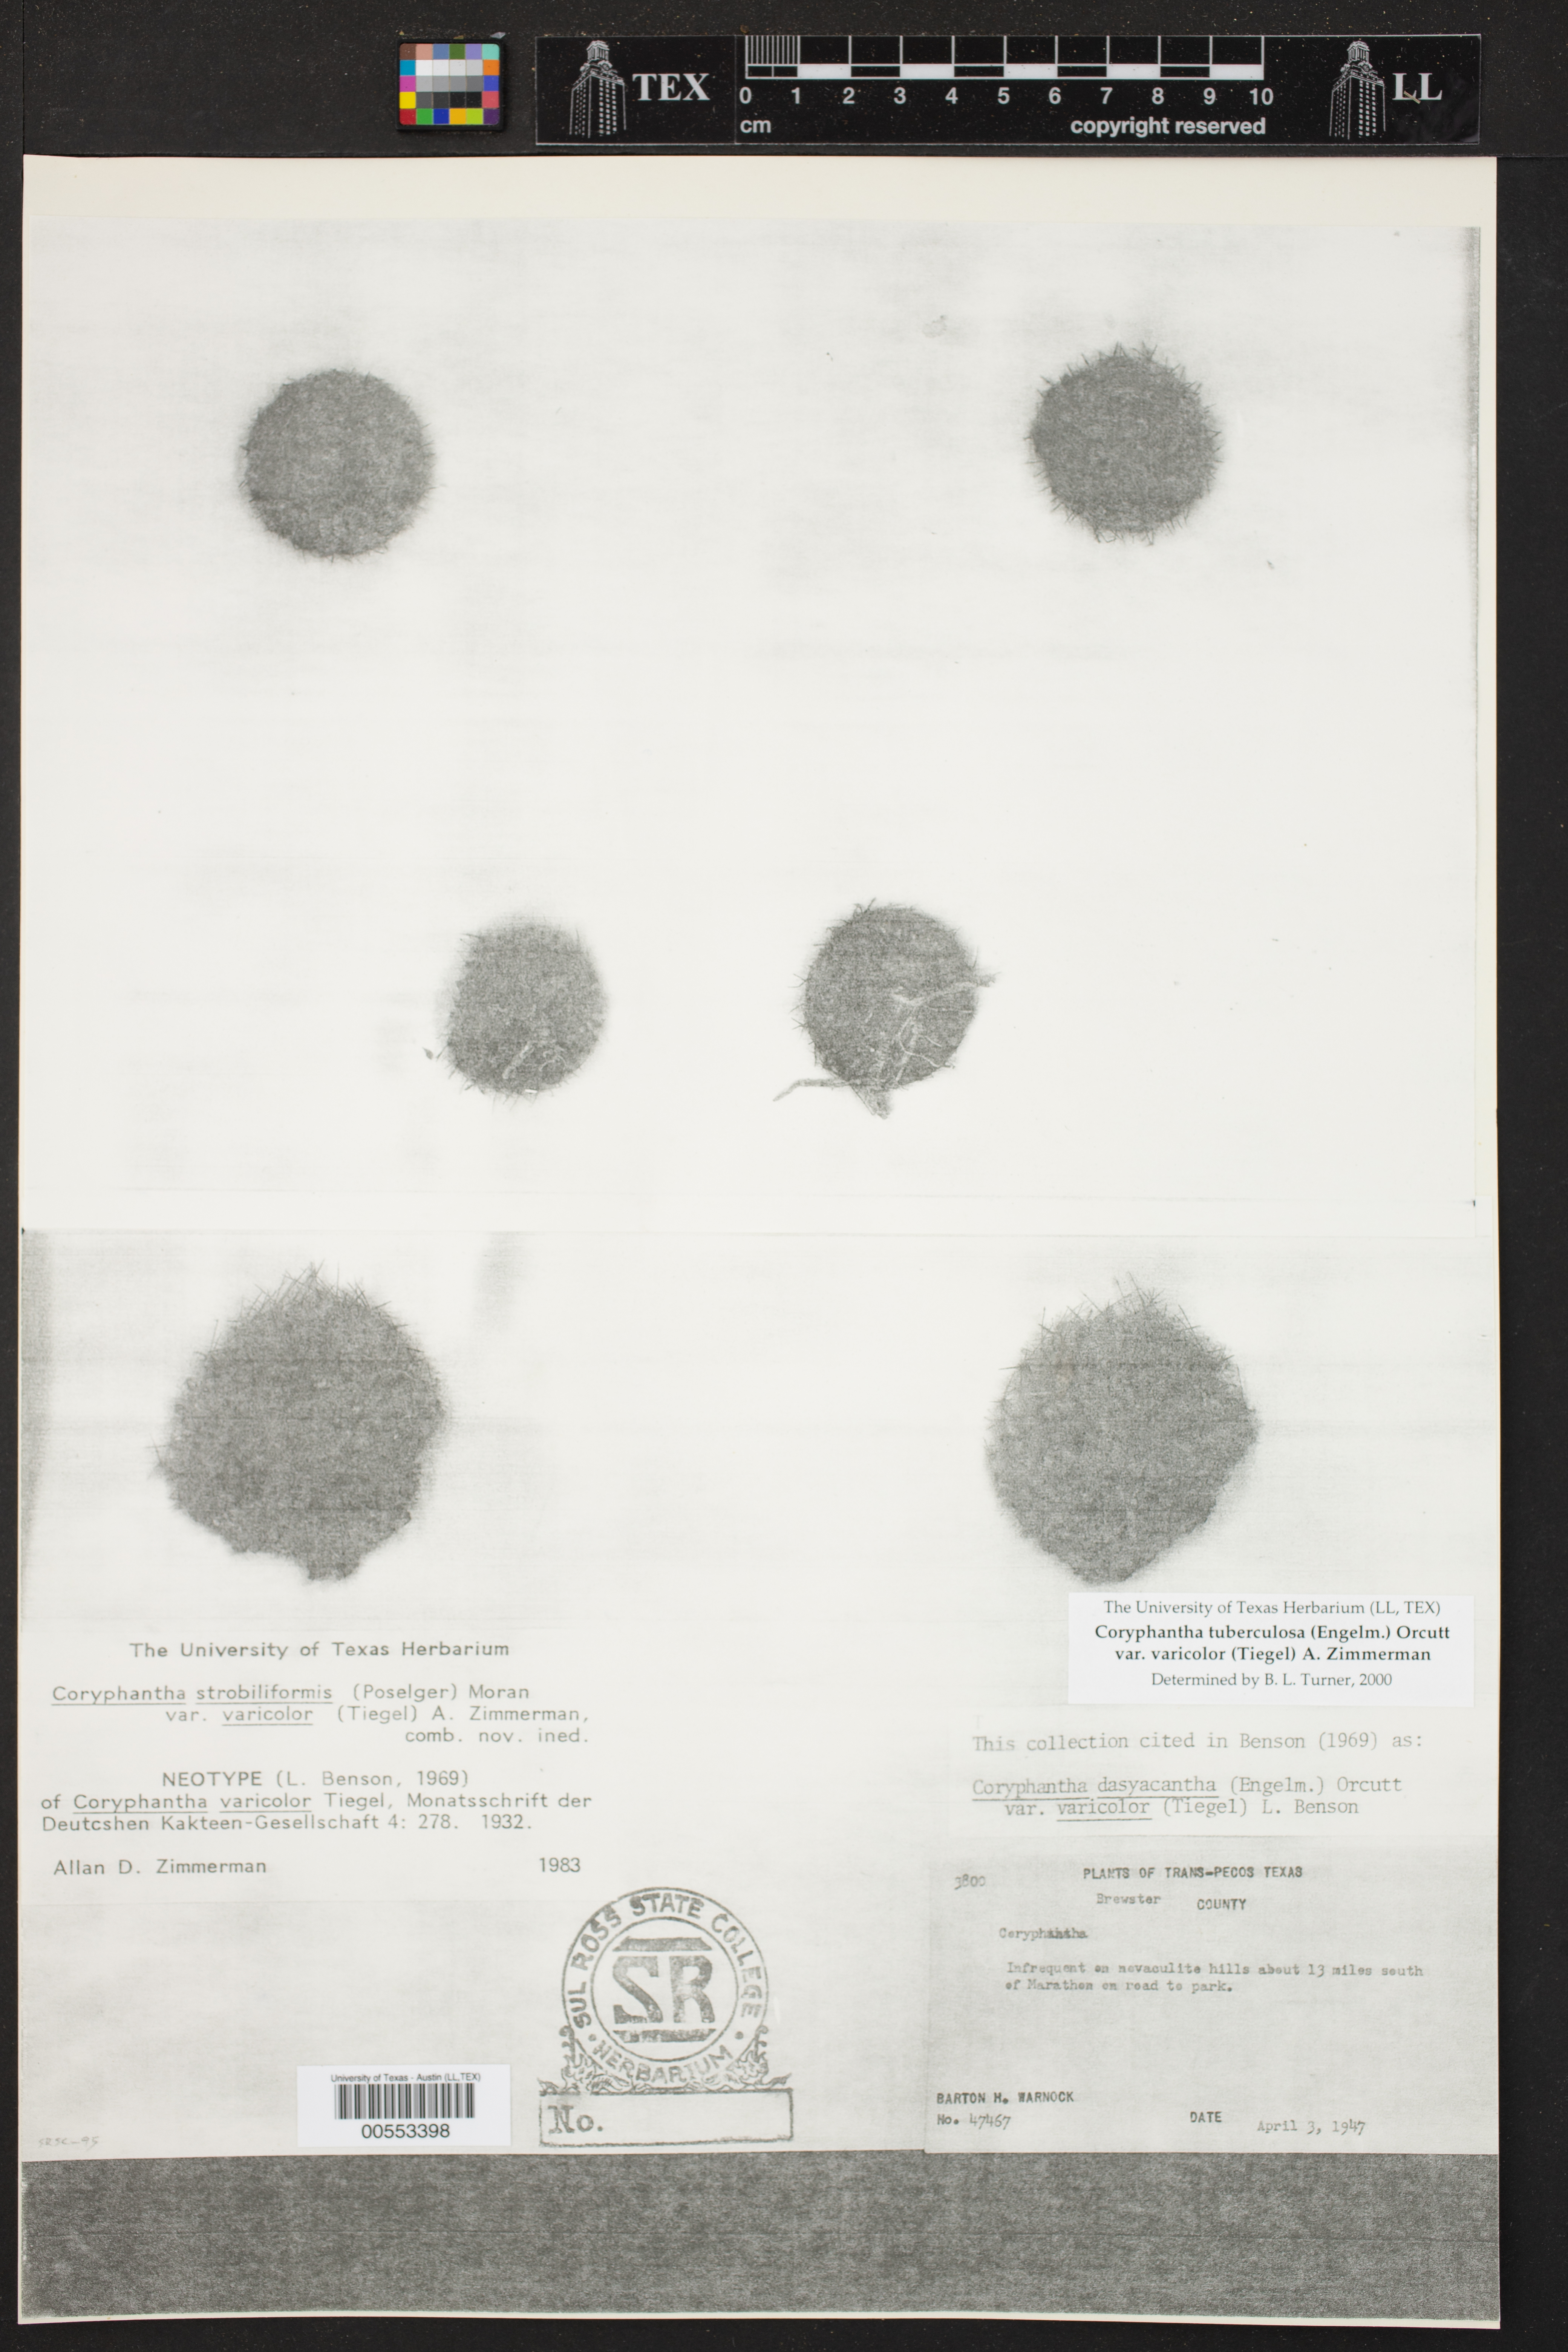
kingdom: Plantae
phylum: Tracheophyta
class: Magnoliopsida
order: Caryophyllales
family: Cactaceae
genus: Pelecyphora
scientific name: Pelecyphora tuberculosa
